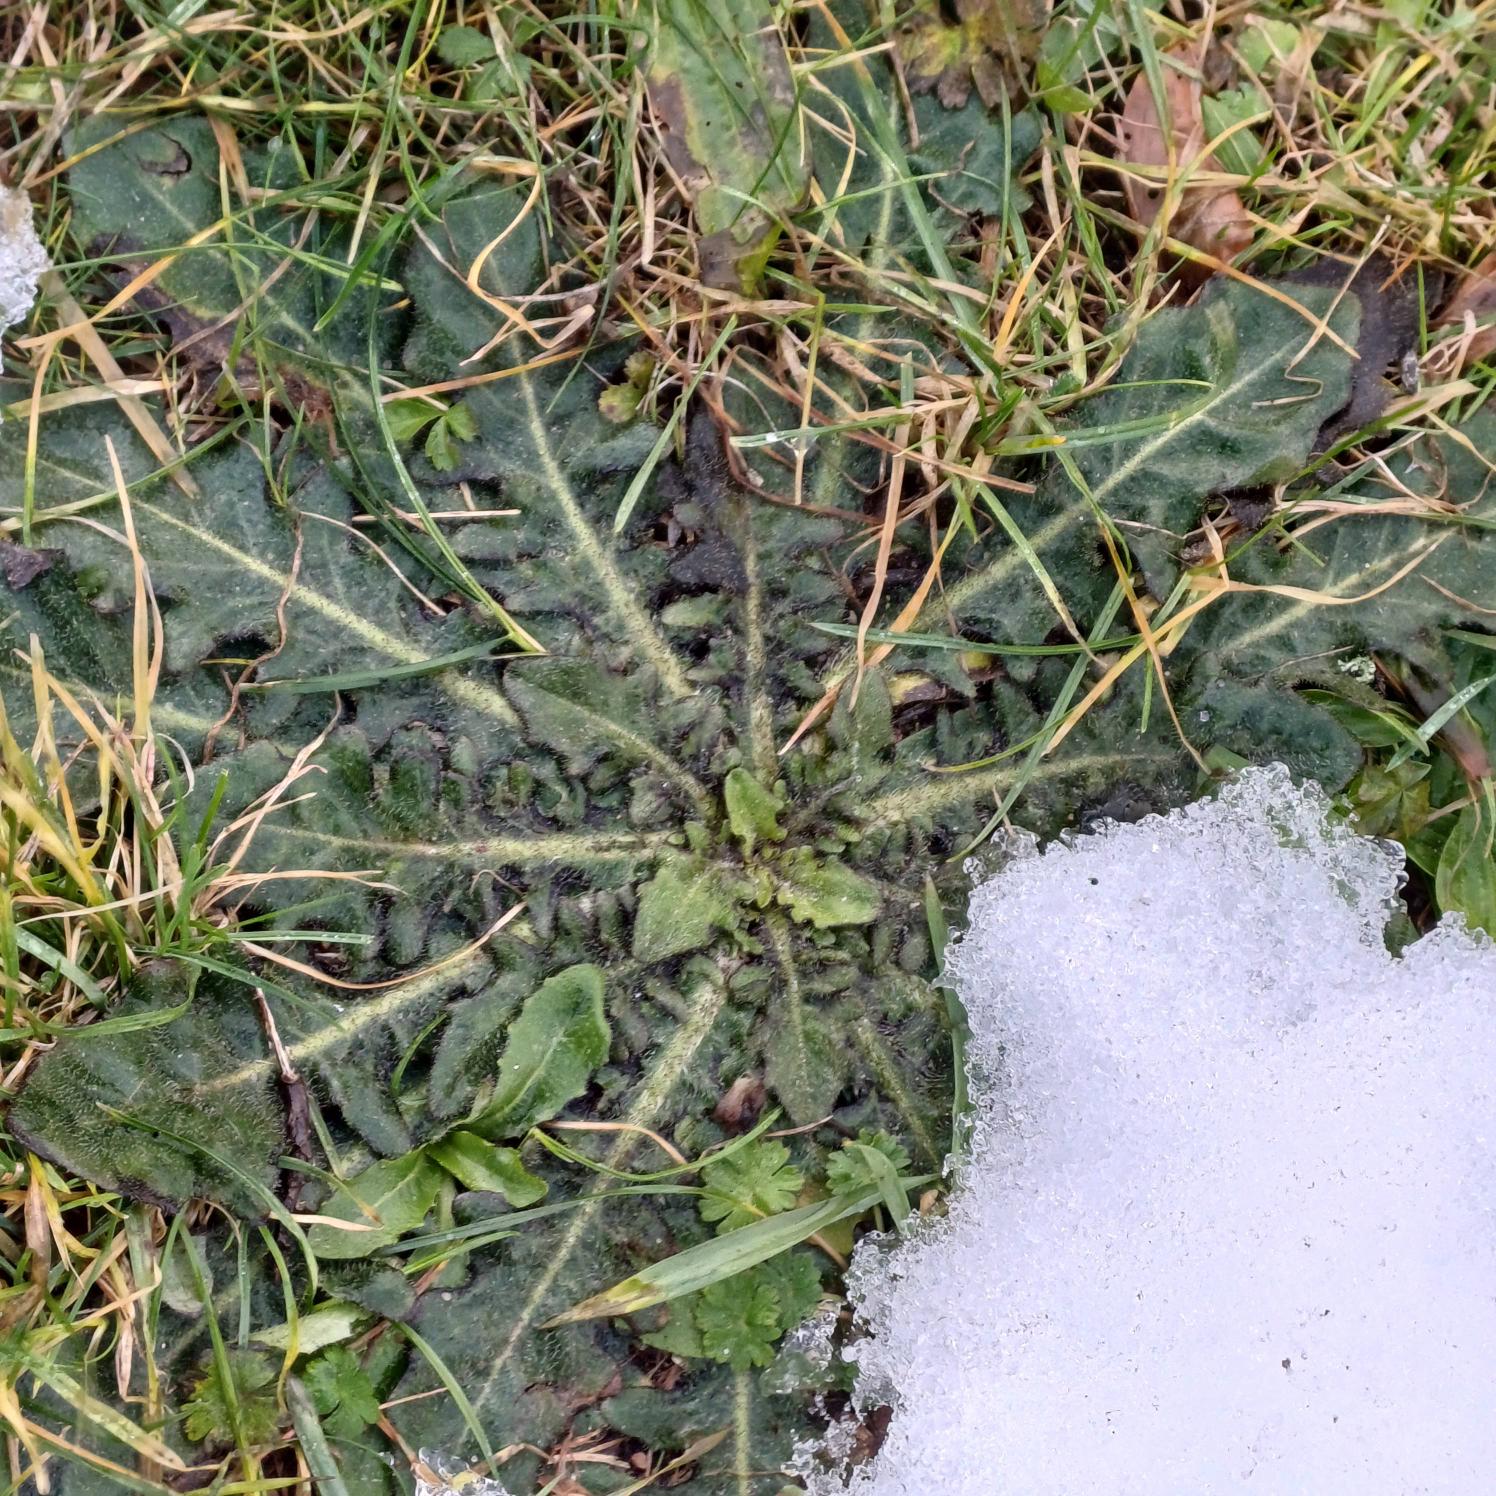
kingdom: Plantae
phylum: Tracheophyta
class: Magnoliopsida
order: Asterales
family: Asteraceae
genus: Hypochaeris
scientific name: Hypochaeris radicata
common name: Almindelig kongepen
